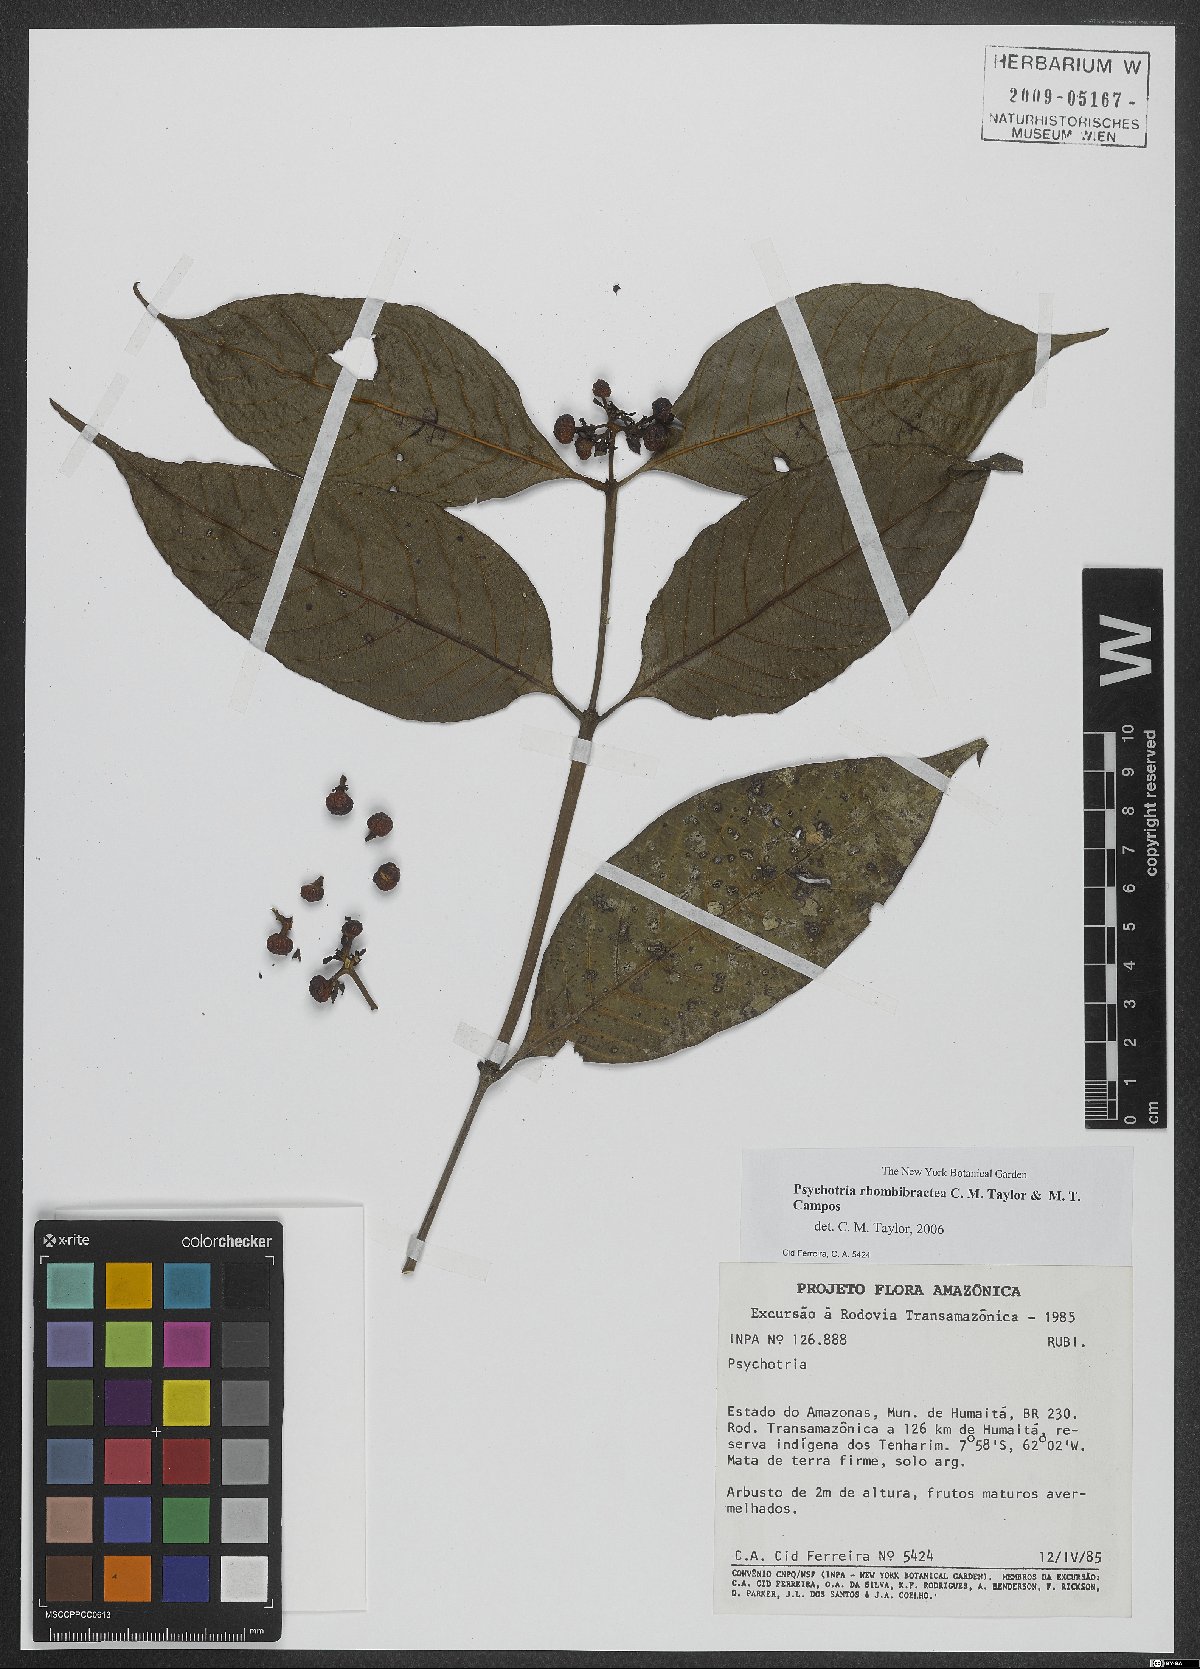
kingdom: Plantae
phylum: Tracheophyta
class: Magnoliopsida
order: Gentianales
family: Rubiaceae
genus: Psychotria
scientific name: Psychotria rhombibractea
